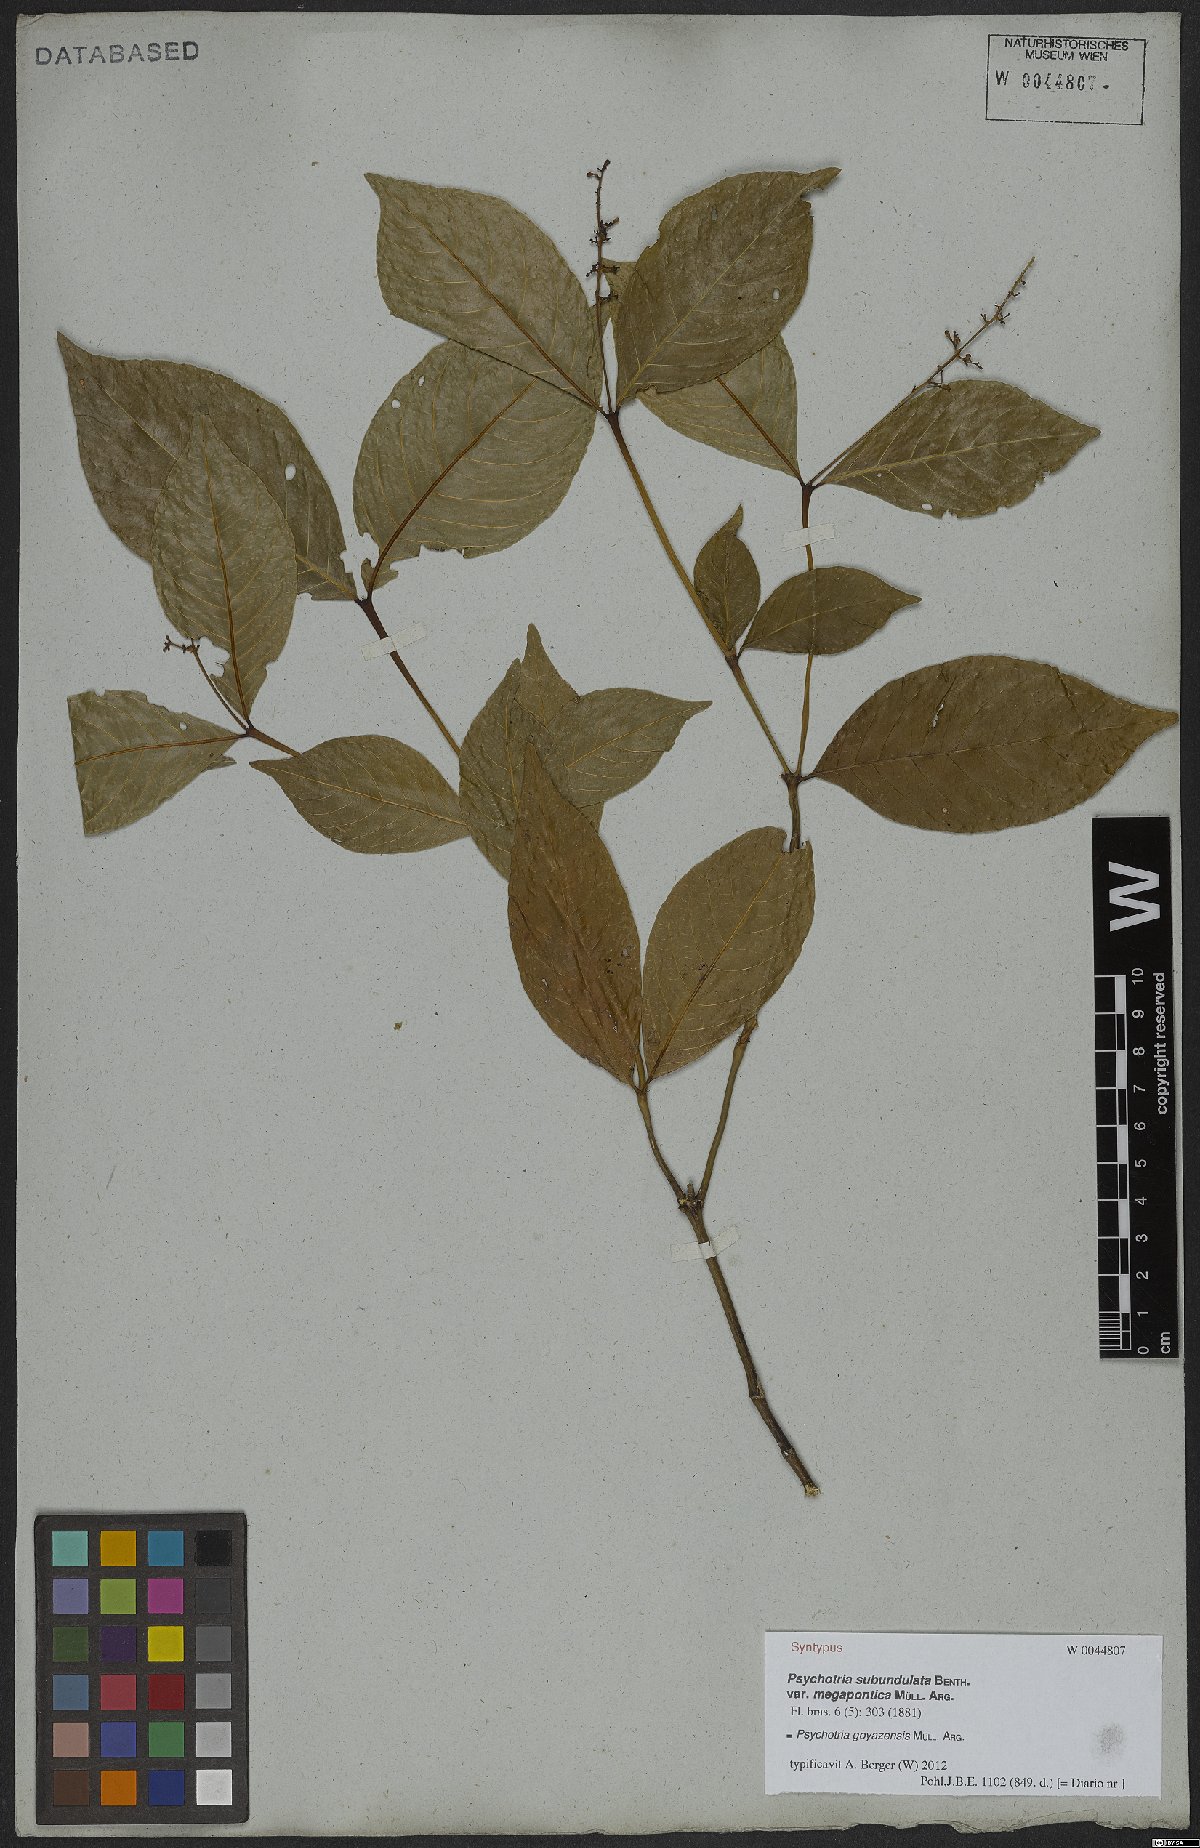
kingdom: Plantae
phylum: Tracheophyta
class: Magnoliopsida
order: Gentianales
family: Rubiaceae
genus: Palicourea
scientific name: Palicourea goyazensis
